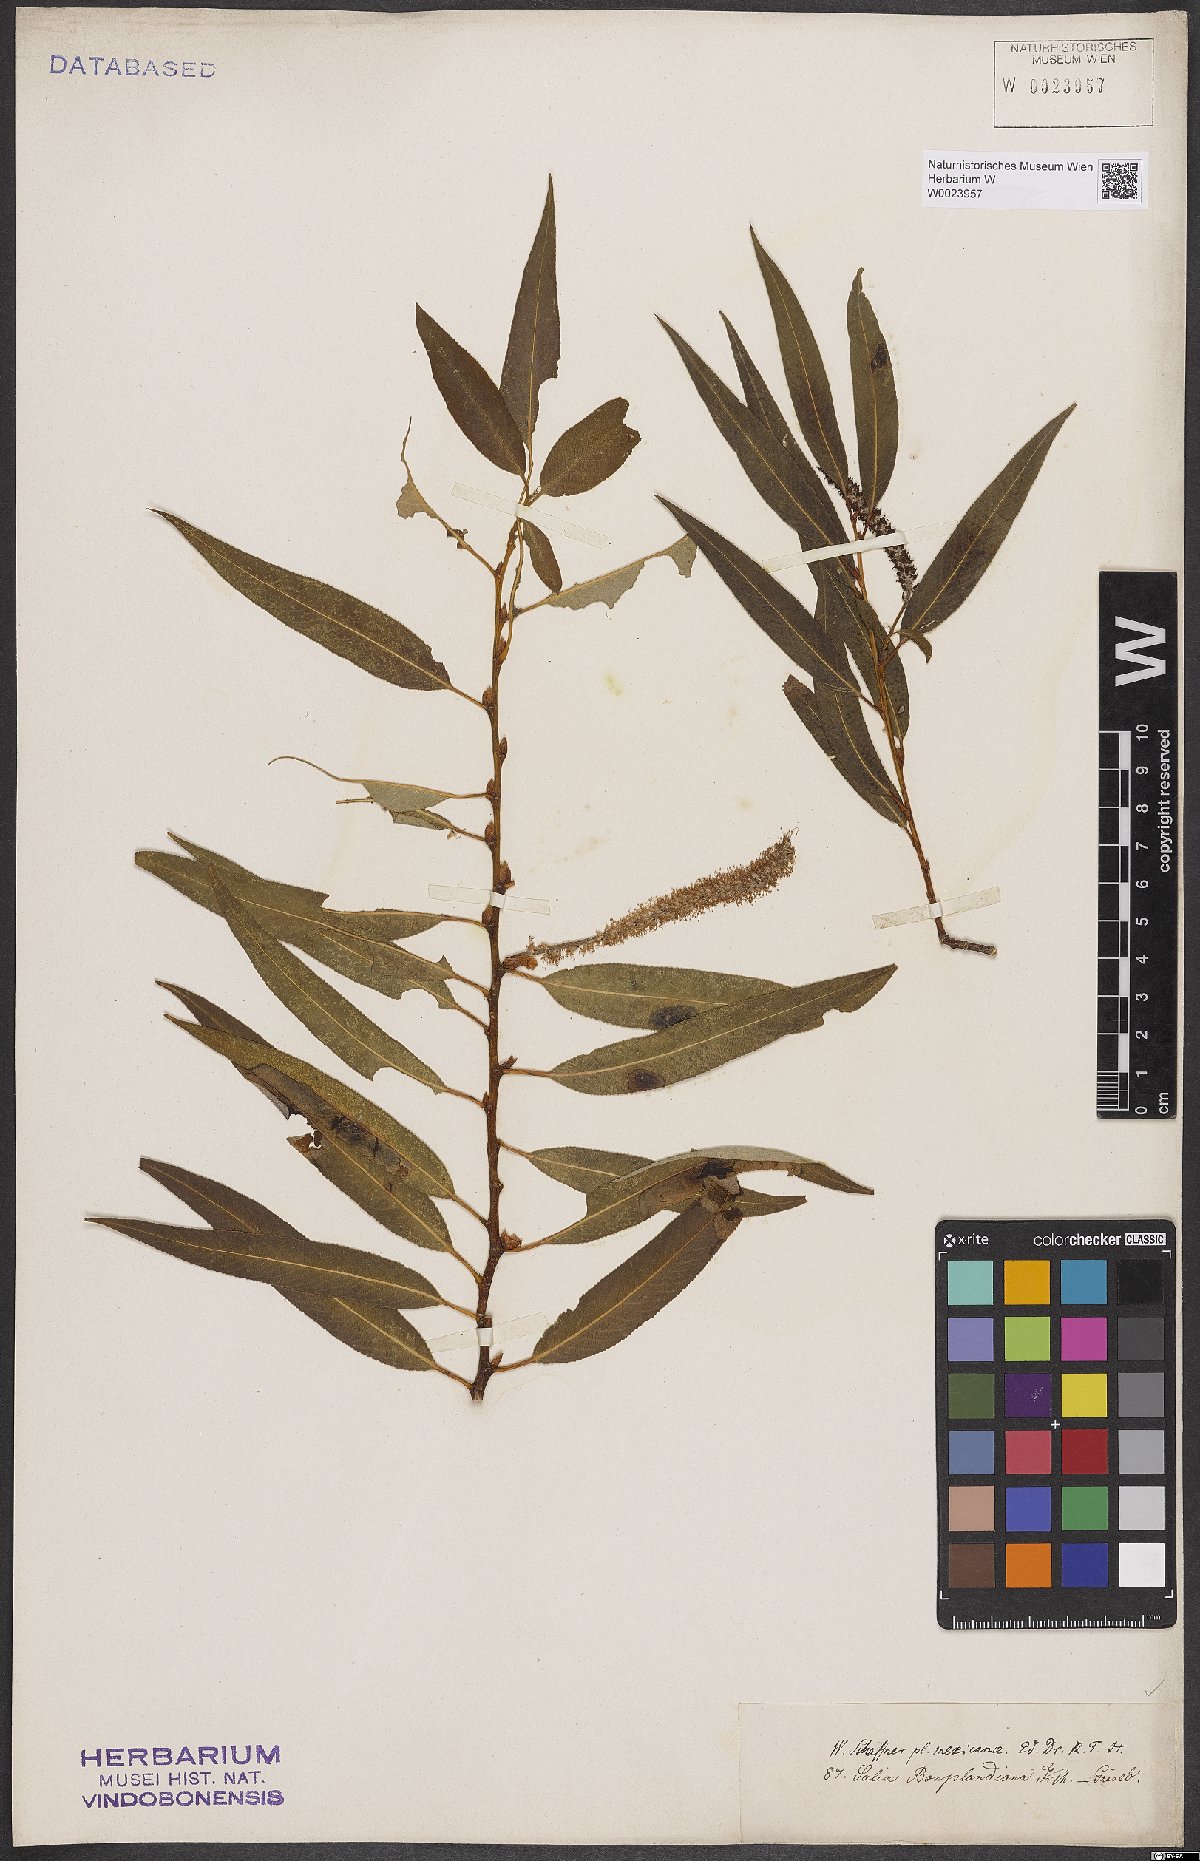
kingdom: Plantae
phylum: Tracheophyta
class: Magnoliopsida
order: Malpighiales
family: Salicaceae
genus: Salix
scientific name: Salix bonplandiana
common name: Bonpland’s willow
